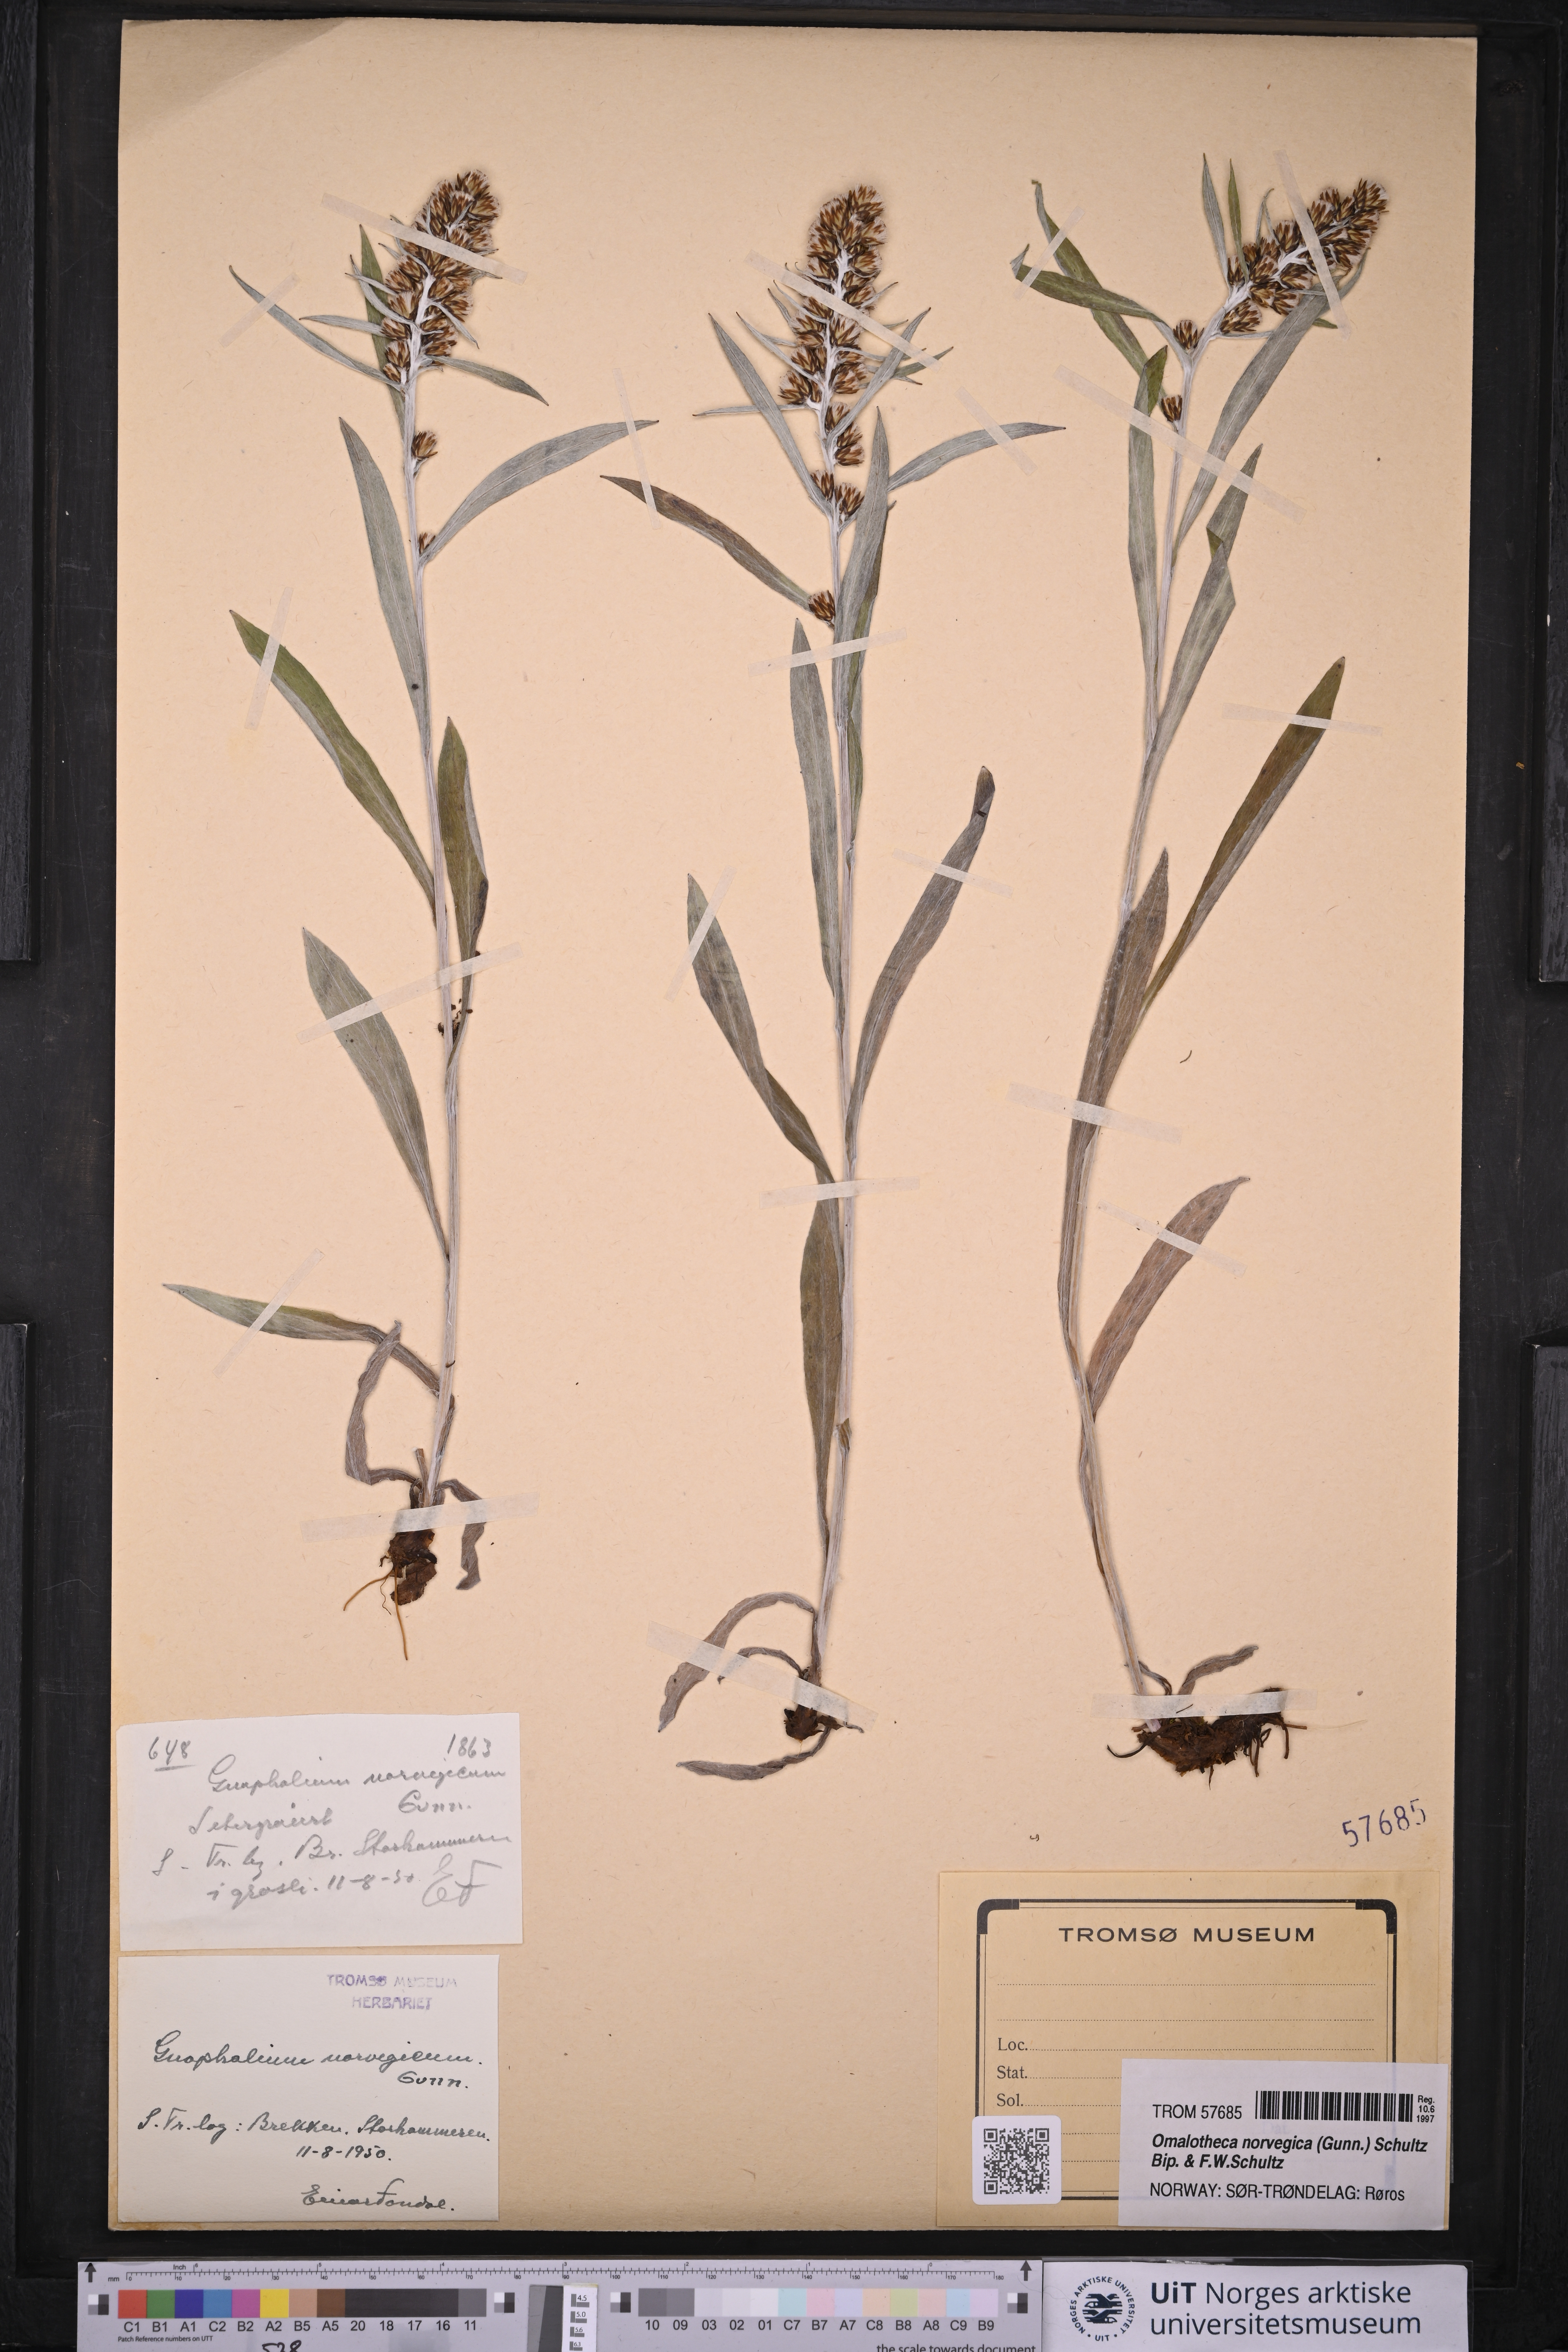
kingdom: Plantae
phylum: Tracheophyta
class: Magnoliopsida
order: Asterales
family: Asteraceae
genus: Omalotheca
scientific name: Omalotheca norvegica
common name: Norwegian arctic-cudweed
